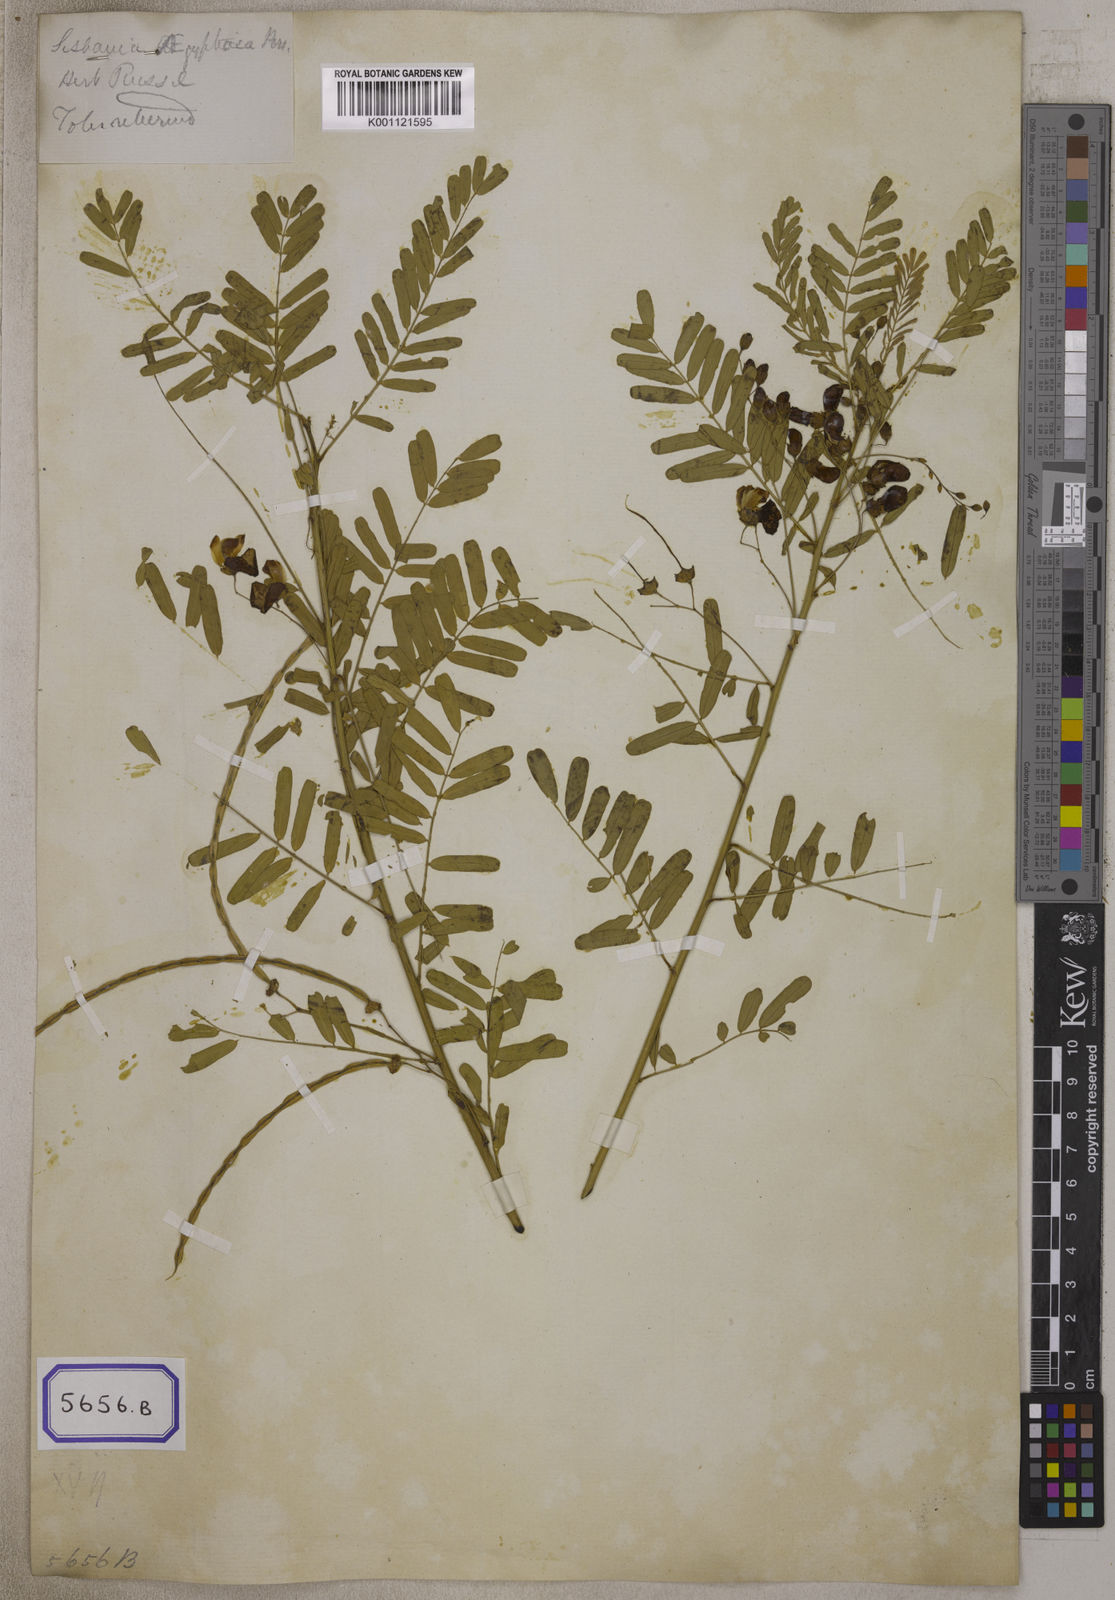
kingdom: Plantae
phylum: Tracheophyta
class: Magnoliopsida
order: Fabales
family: Fabaceae
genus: Sesbania
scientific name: Sesbania
